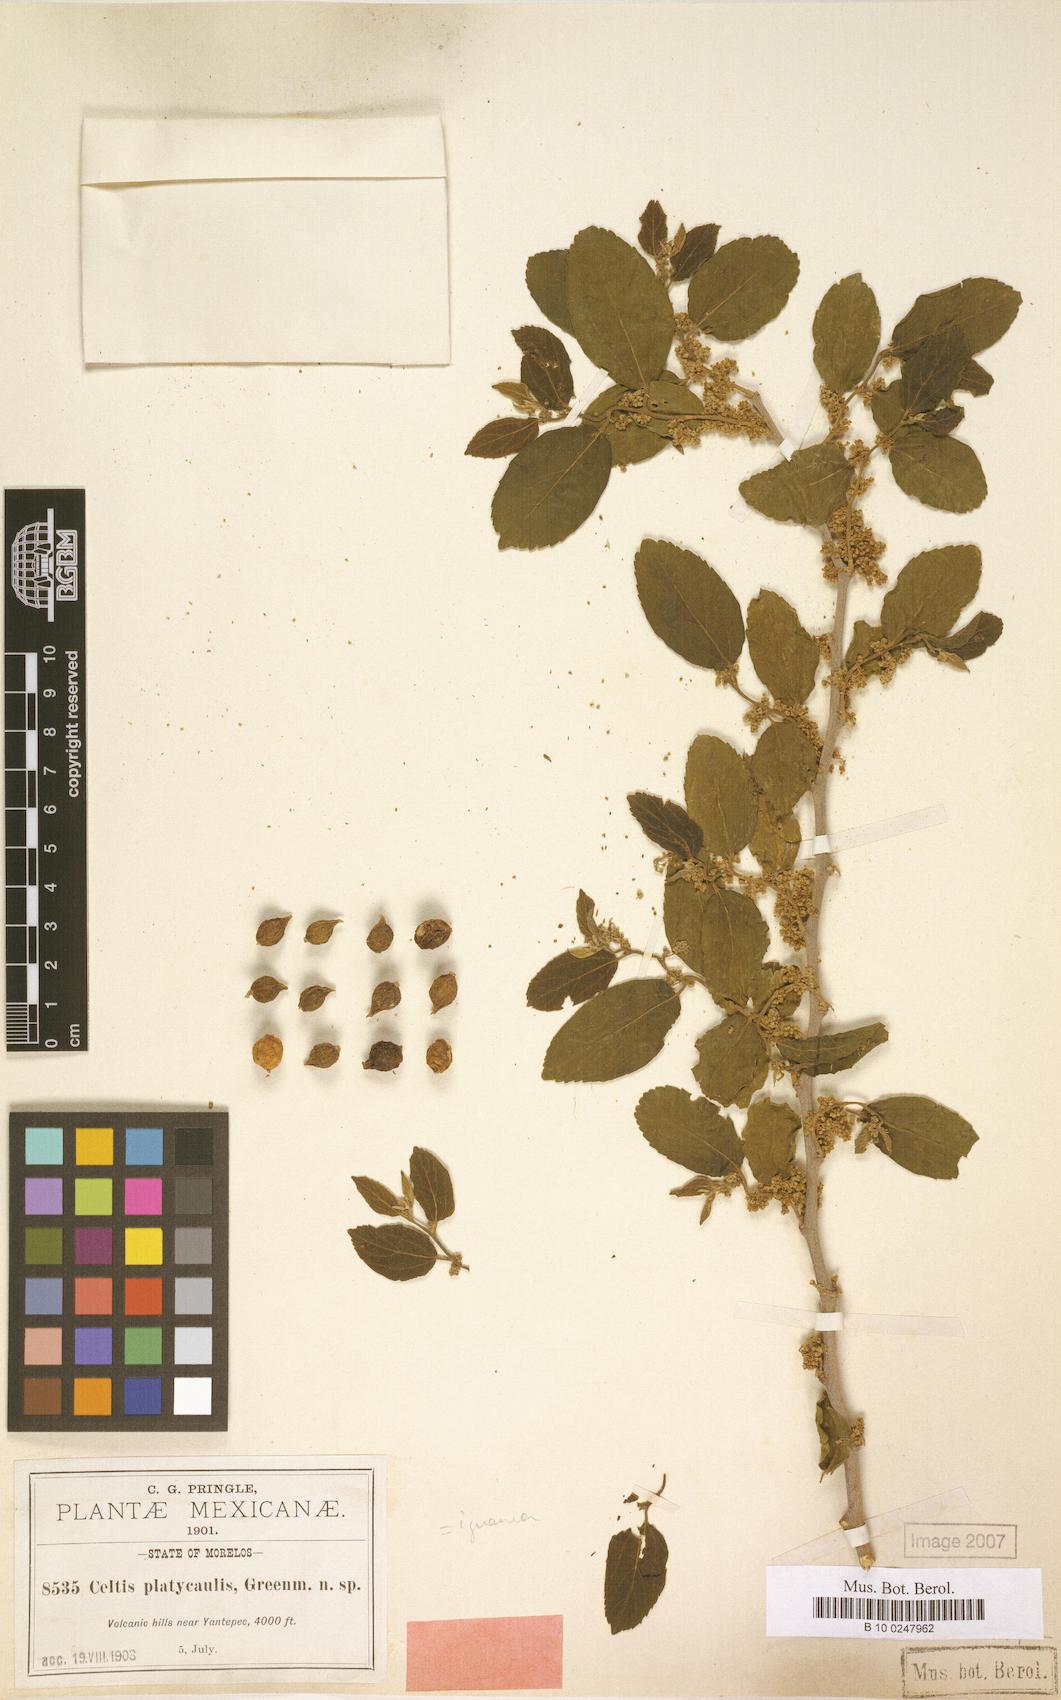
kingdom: Plantae
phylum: Tracheophyta
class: Magnoliopsida
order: Rosales
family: Cannabaceae
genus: Celtis
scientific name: Celtis iguanaea
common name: Iguana hackberry
